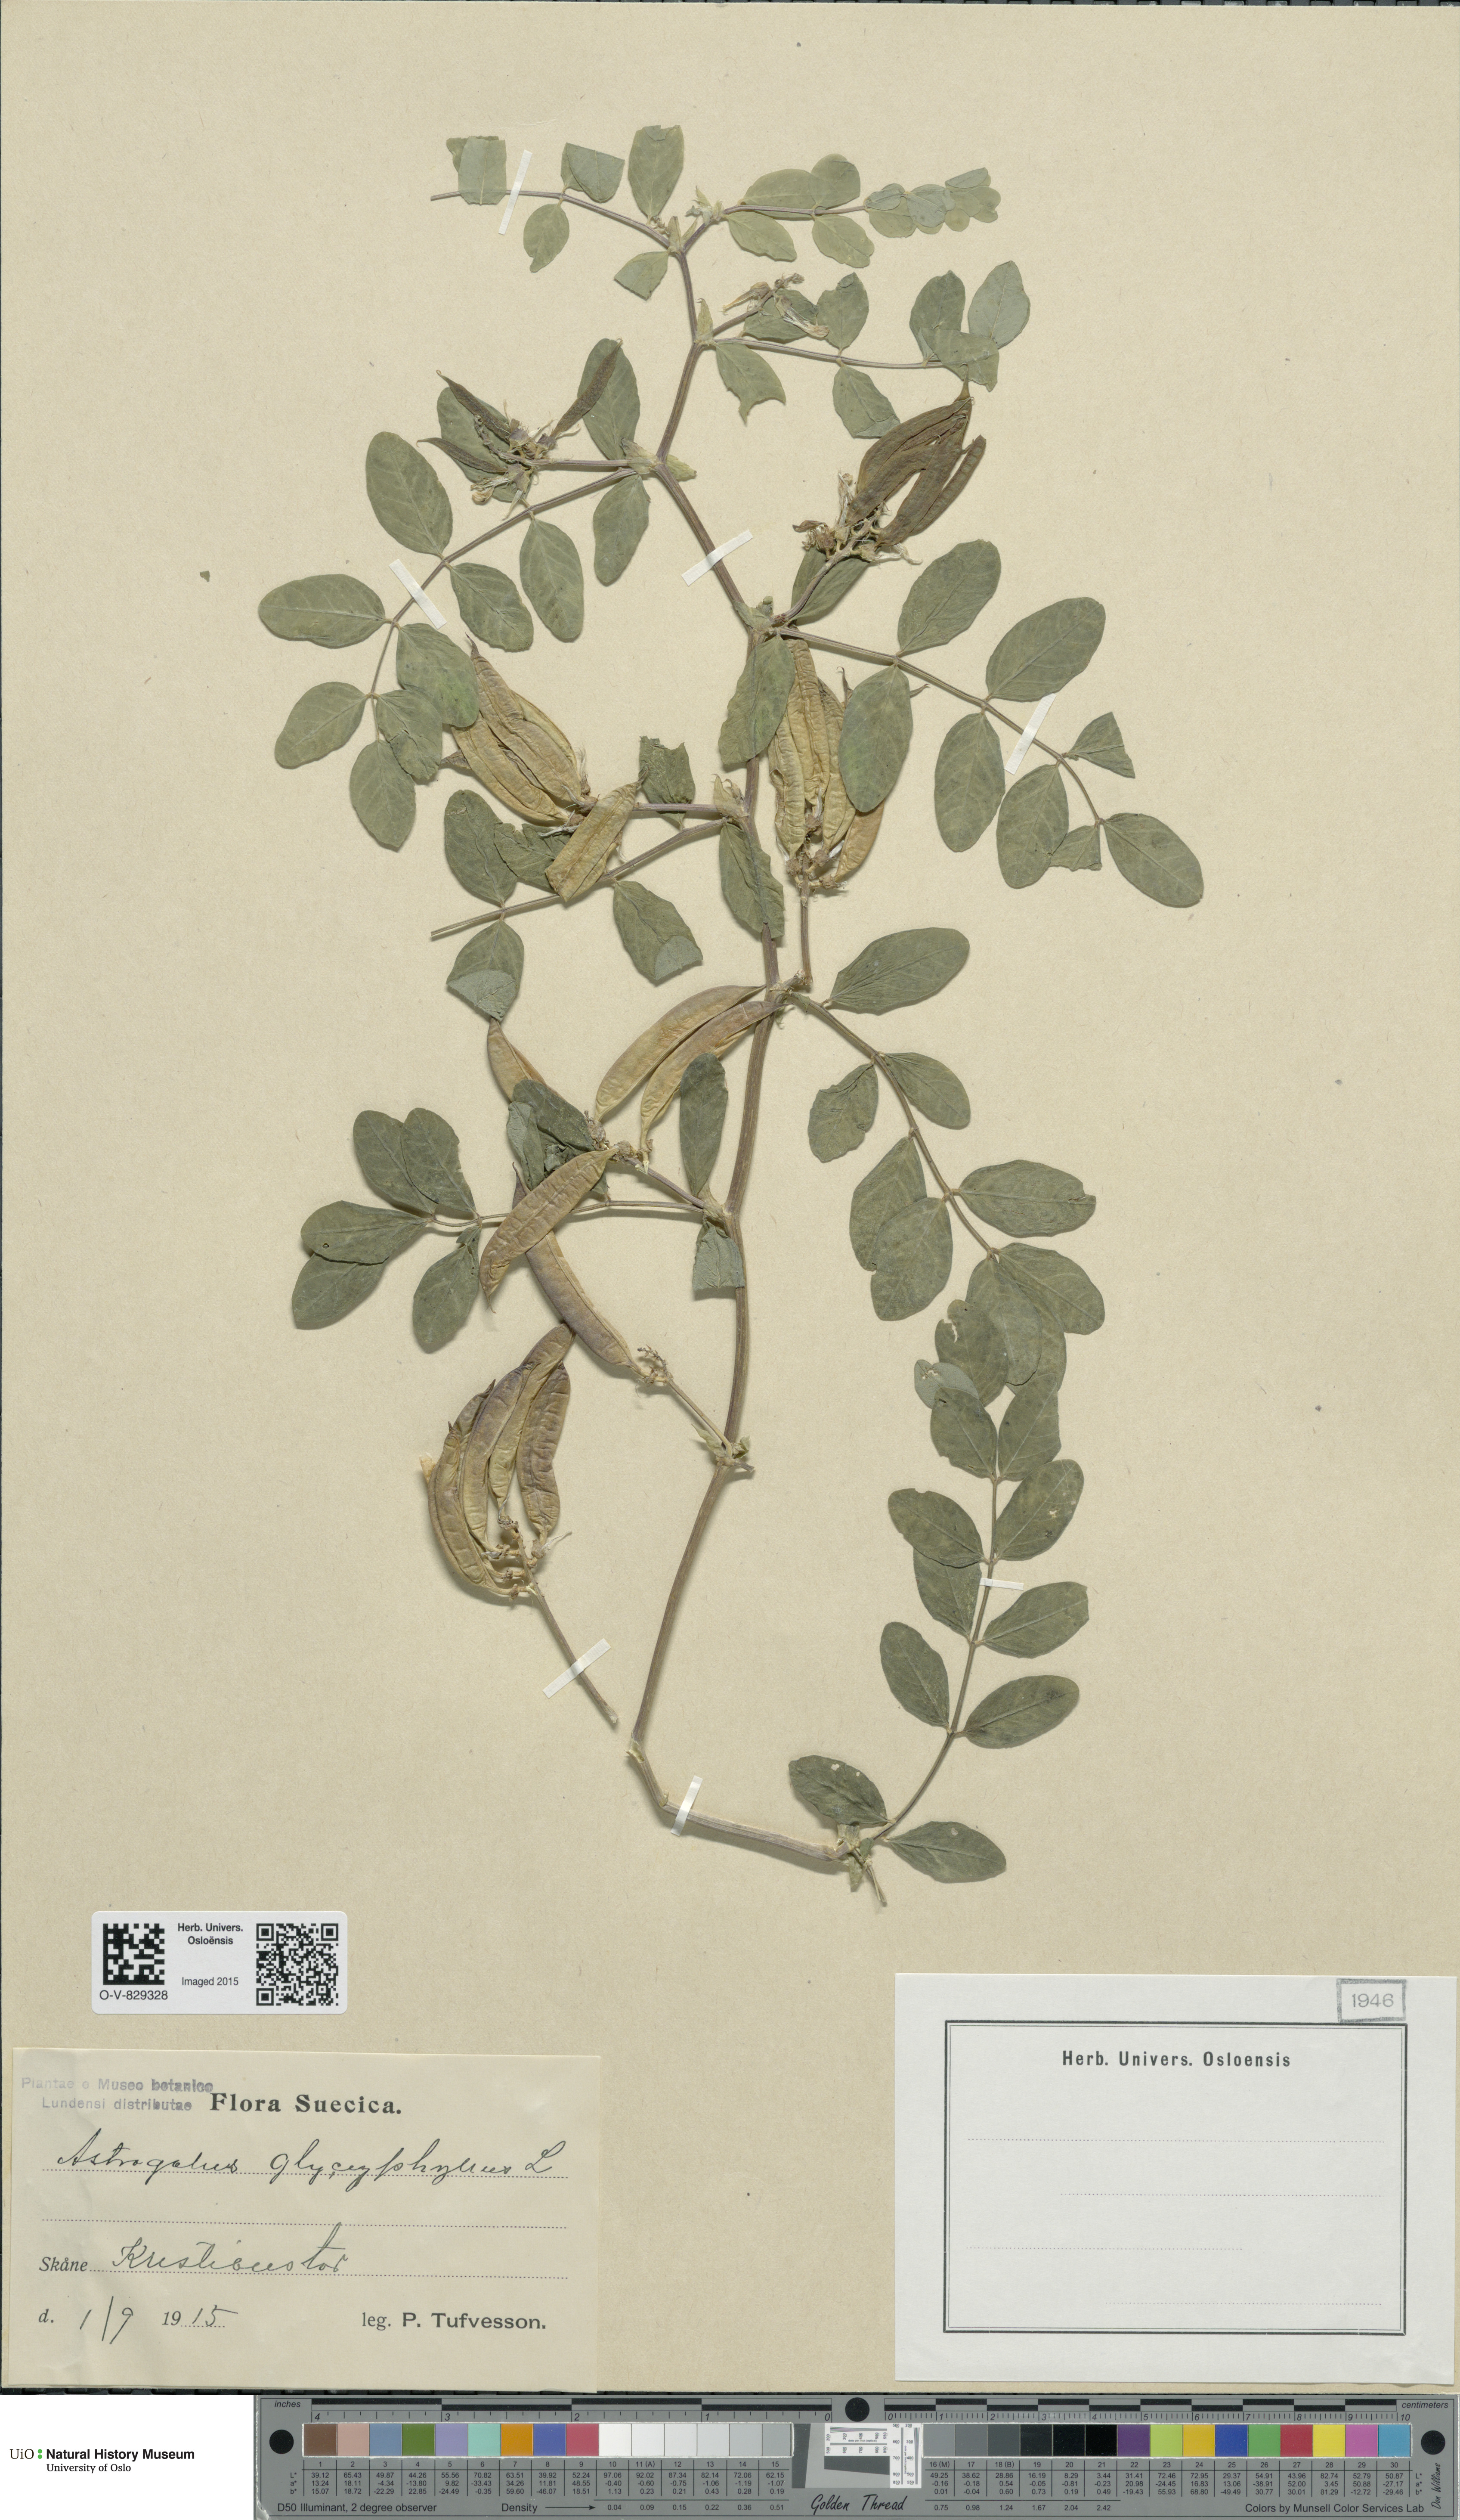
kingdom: Plantae
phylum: Tracheophyta
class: Magnoliopsida
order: Fabales
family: Fabaceae
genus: Astragalus
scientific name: Astragalus glycyphyllos
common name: Wild liquorice
